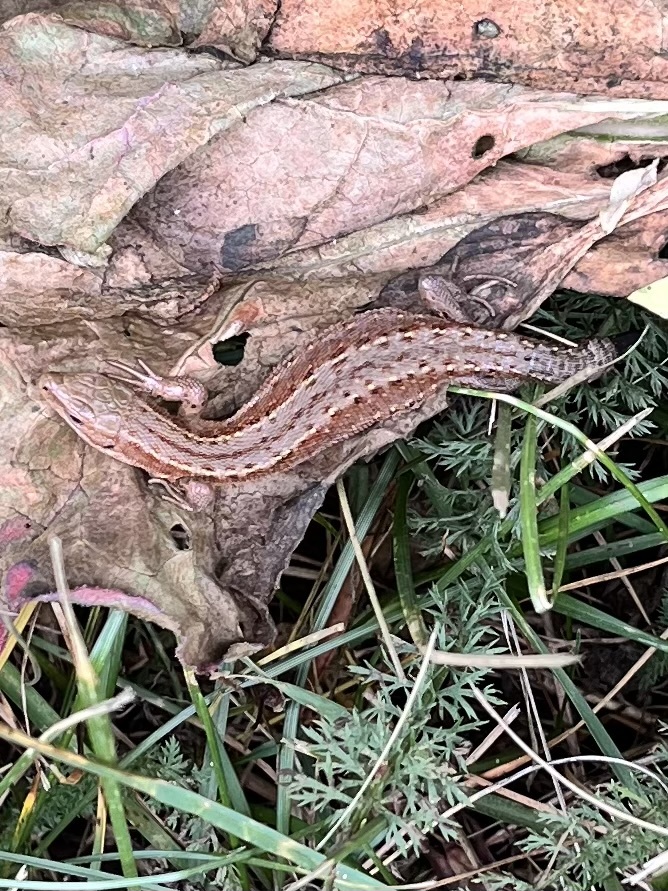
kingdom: Animalia
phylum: Chordata
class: Squamata
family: Lacertidae
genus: Zootoca
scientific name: Zootoca vivipara
